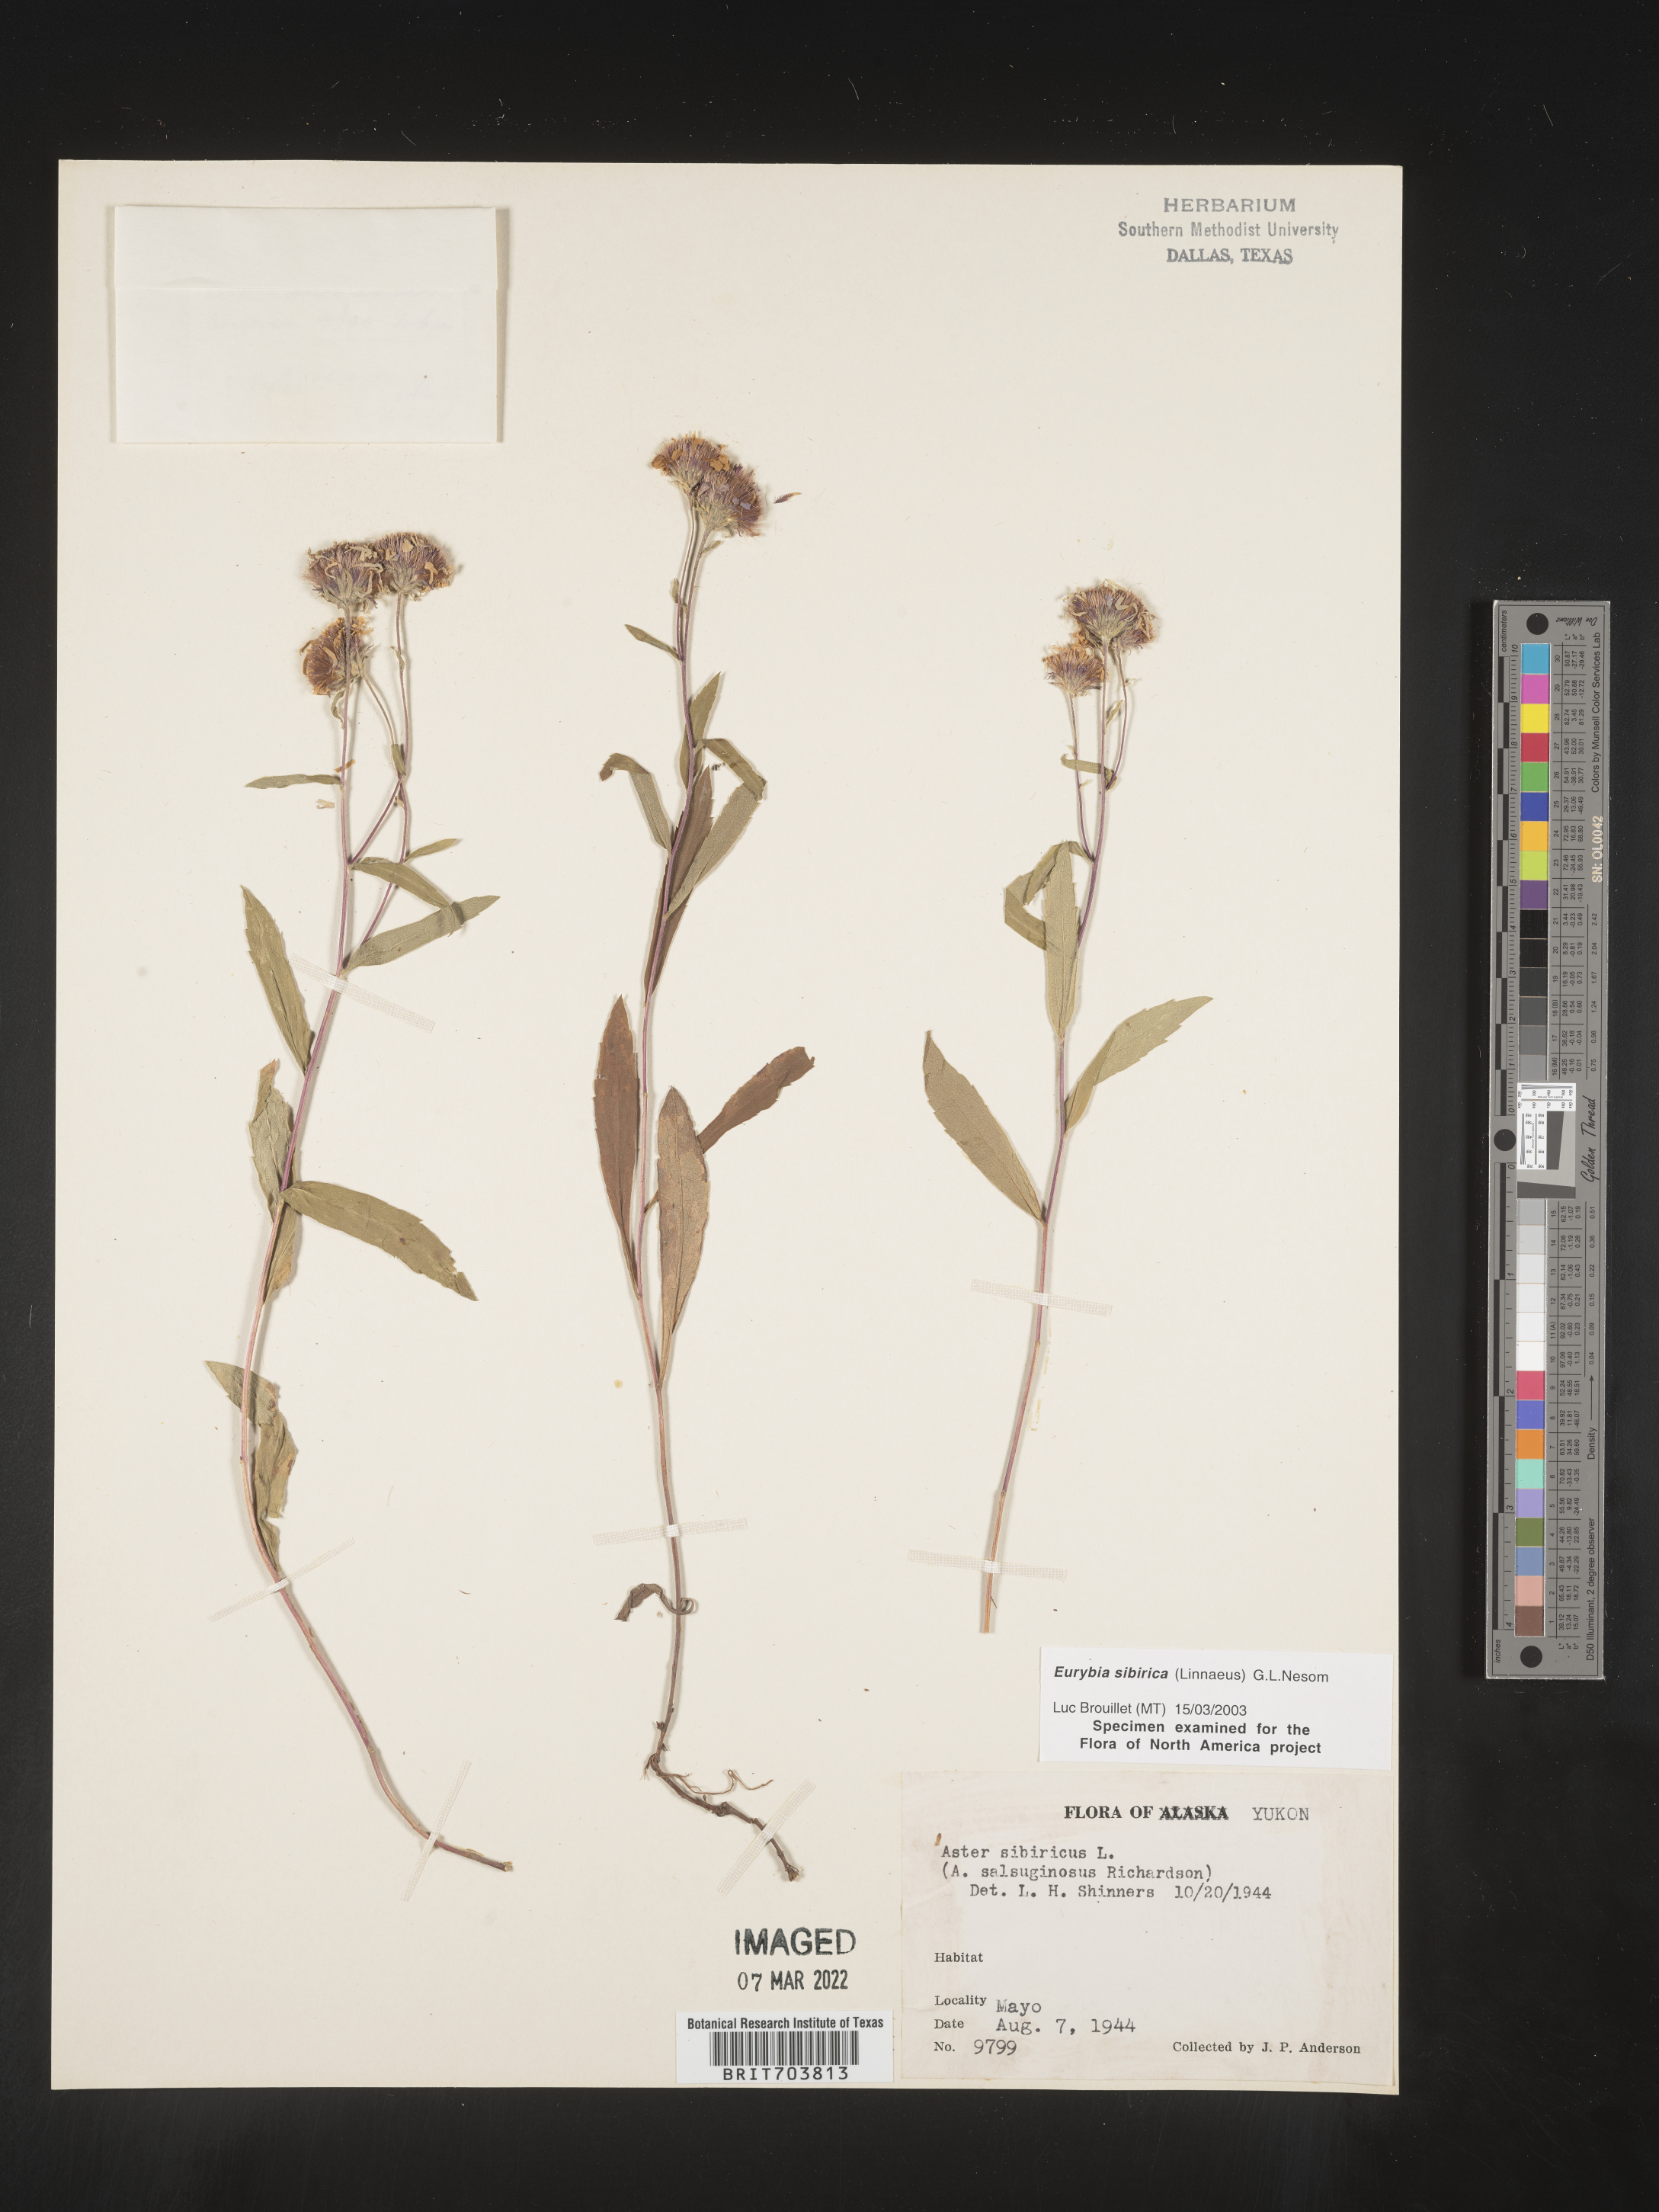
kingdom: Plantae
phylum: Tracheophyta
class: Magnoliopsida
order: Asterales
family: Asteraceae
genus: Eurybia
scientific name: Eurybia sibirica
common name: Arctic aster
